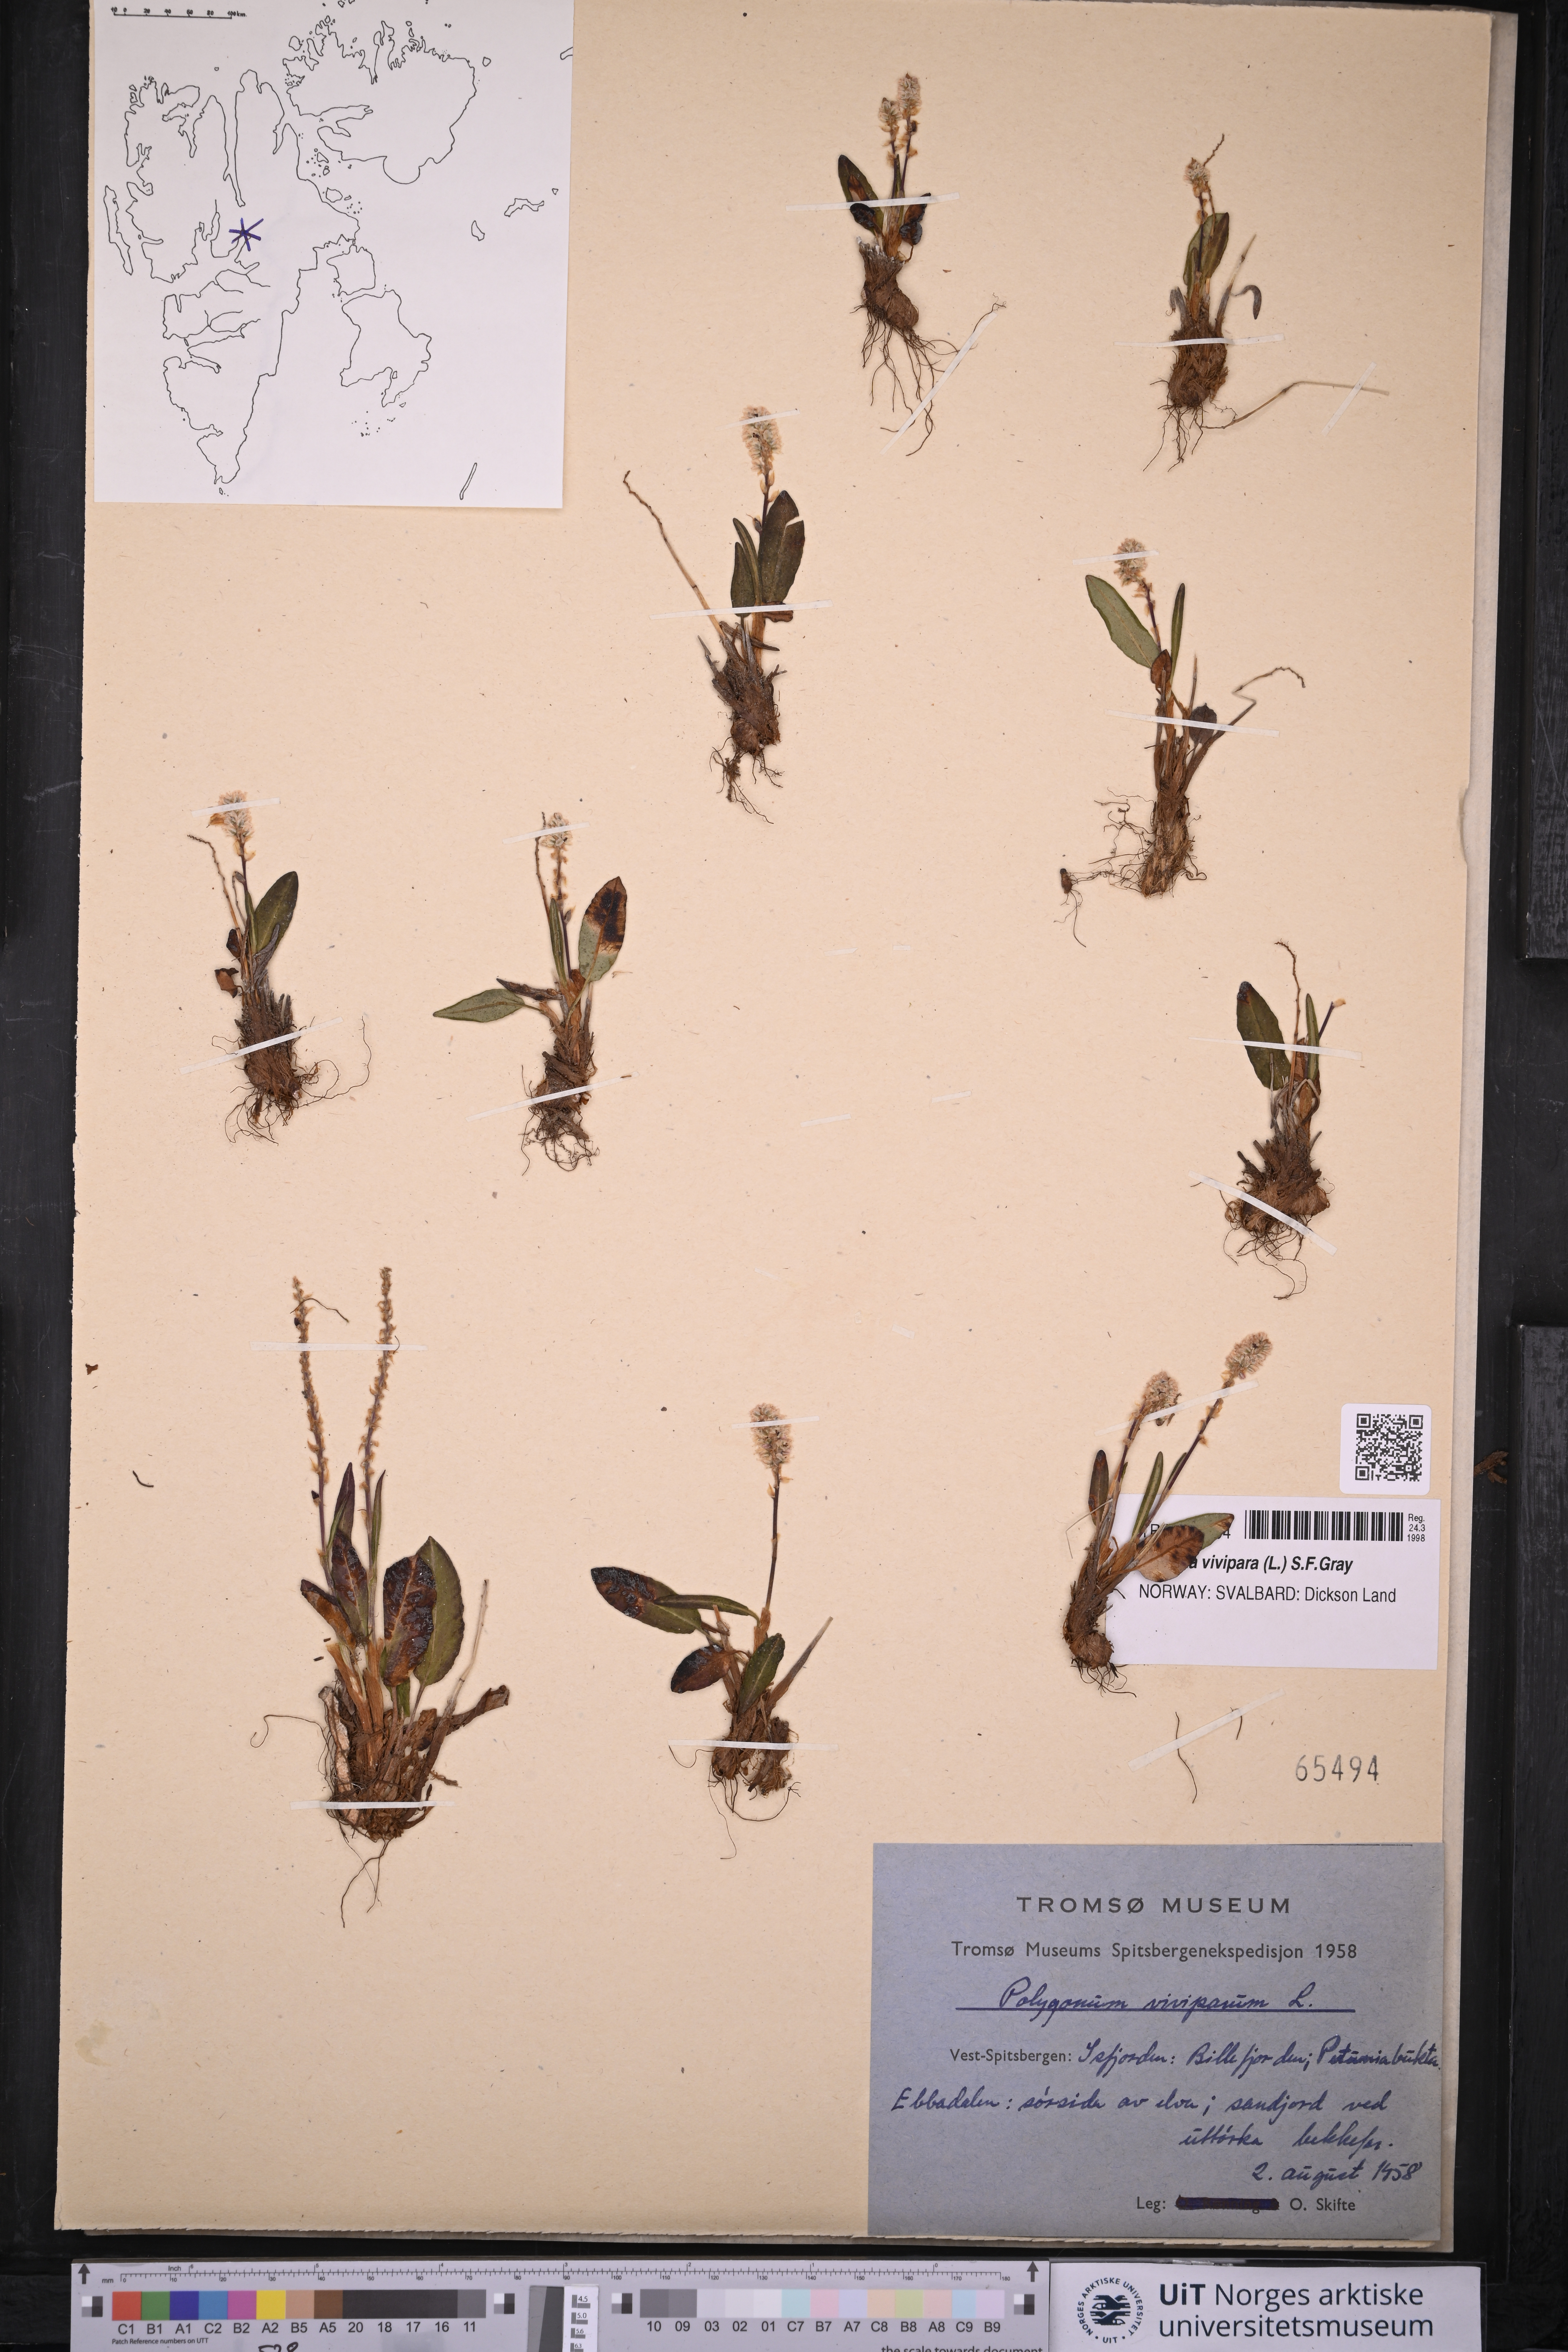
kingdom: Plantae
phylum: Tracheophyta
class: Magnoliopsida
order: Caryophyllales
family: Polygonaceae
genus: Bistorta
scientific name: Bistorta vivipara
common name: Alpine bistort
